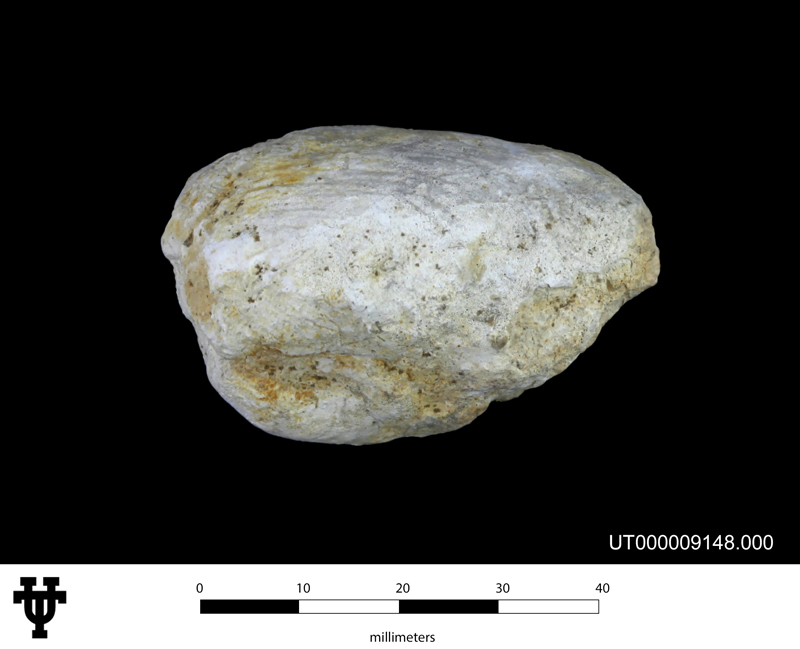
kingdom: Animalia
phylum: Mollusca
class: Bivalvia
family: Pholadomyidae
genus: Homomya
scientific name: Homomya
